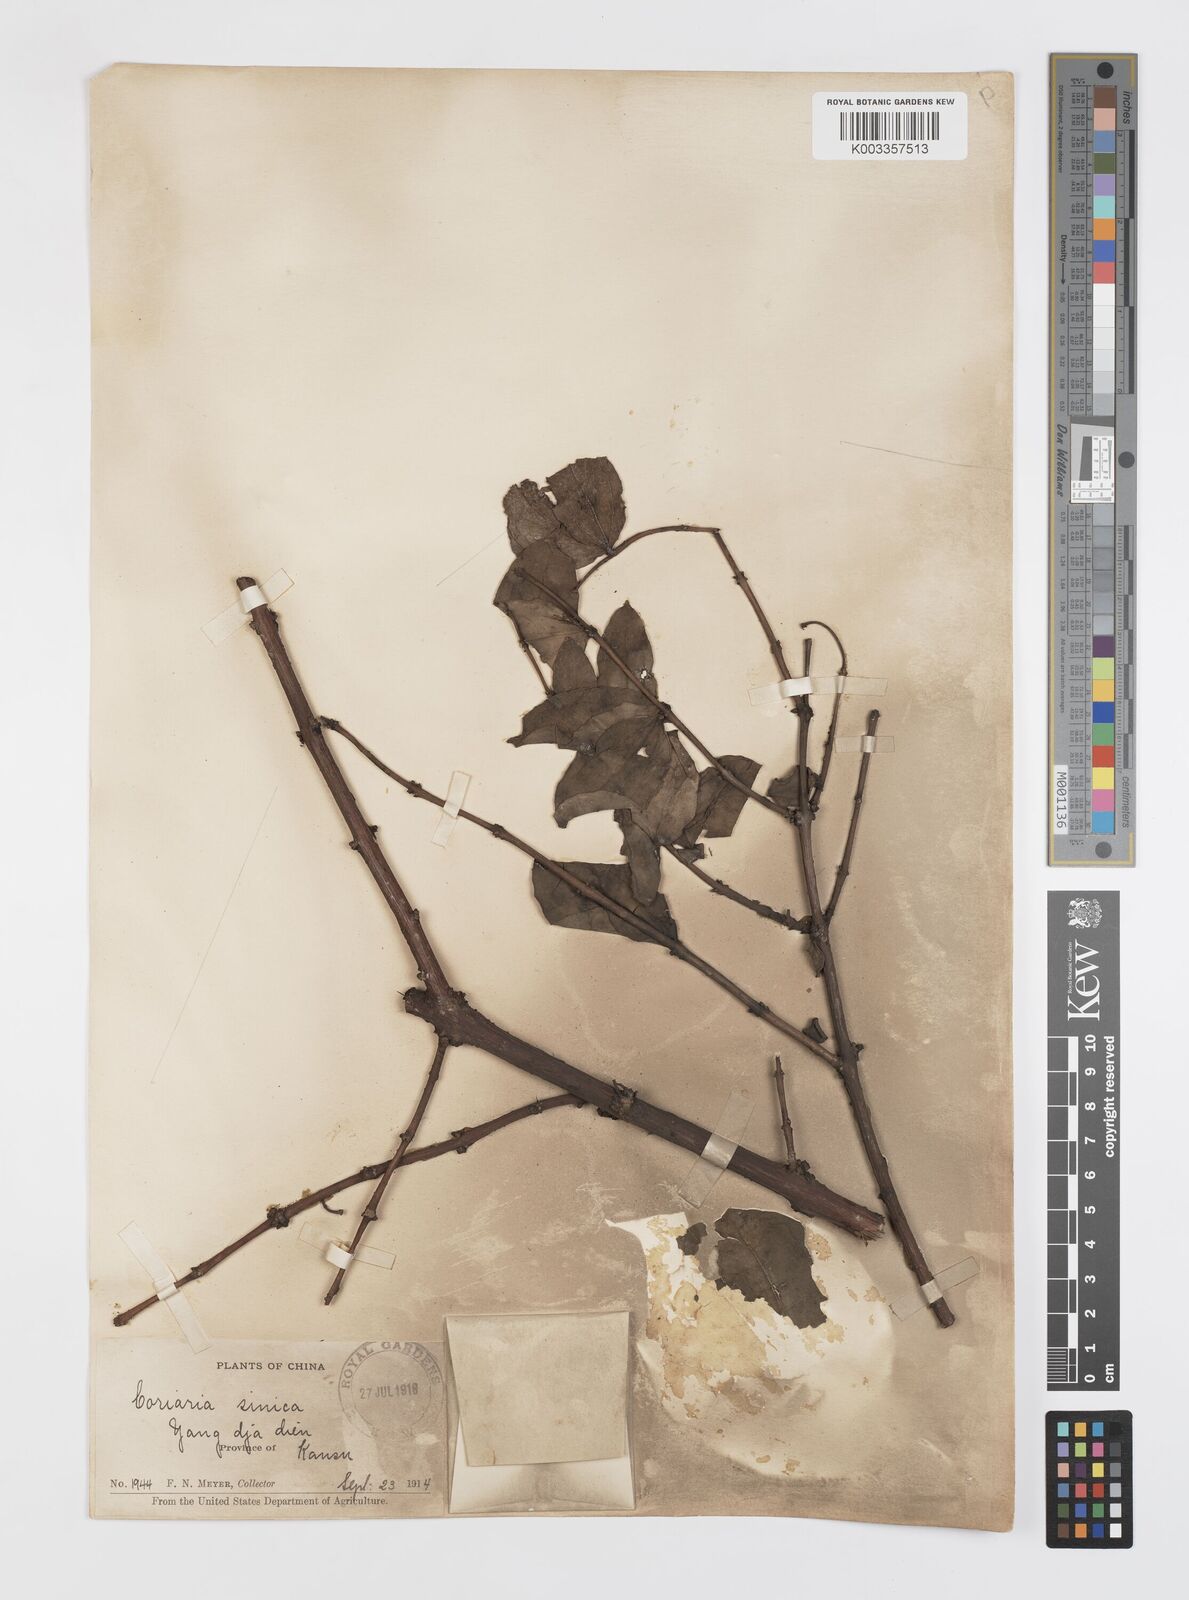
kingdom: Plantae
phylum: Tracheophyta
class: Magnoliopsida
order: Cucurbitales
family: Coriariaceae
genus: Coriaria
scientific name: Coriaria napalensis
